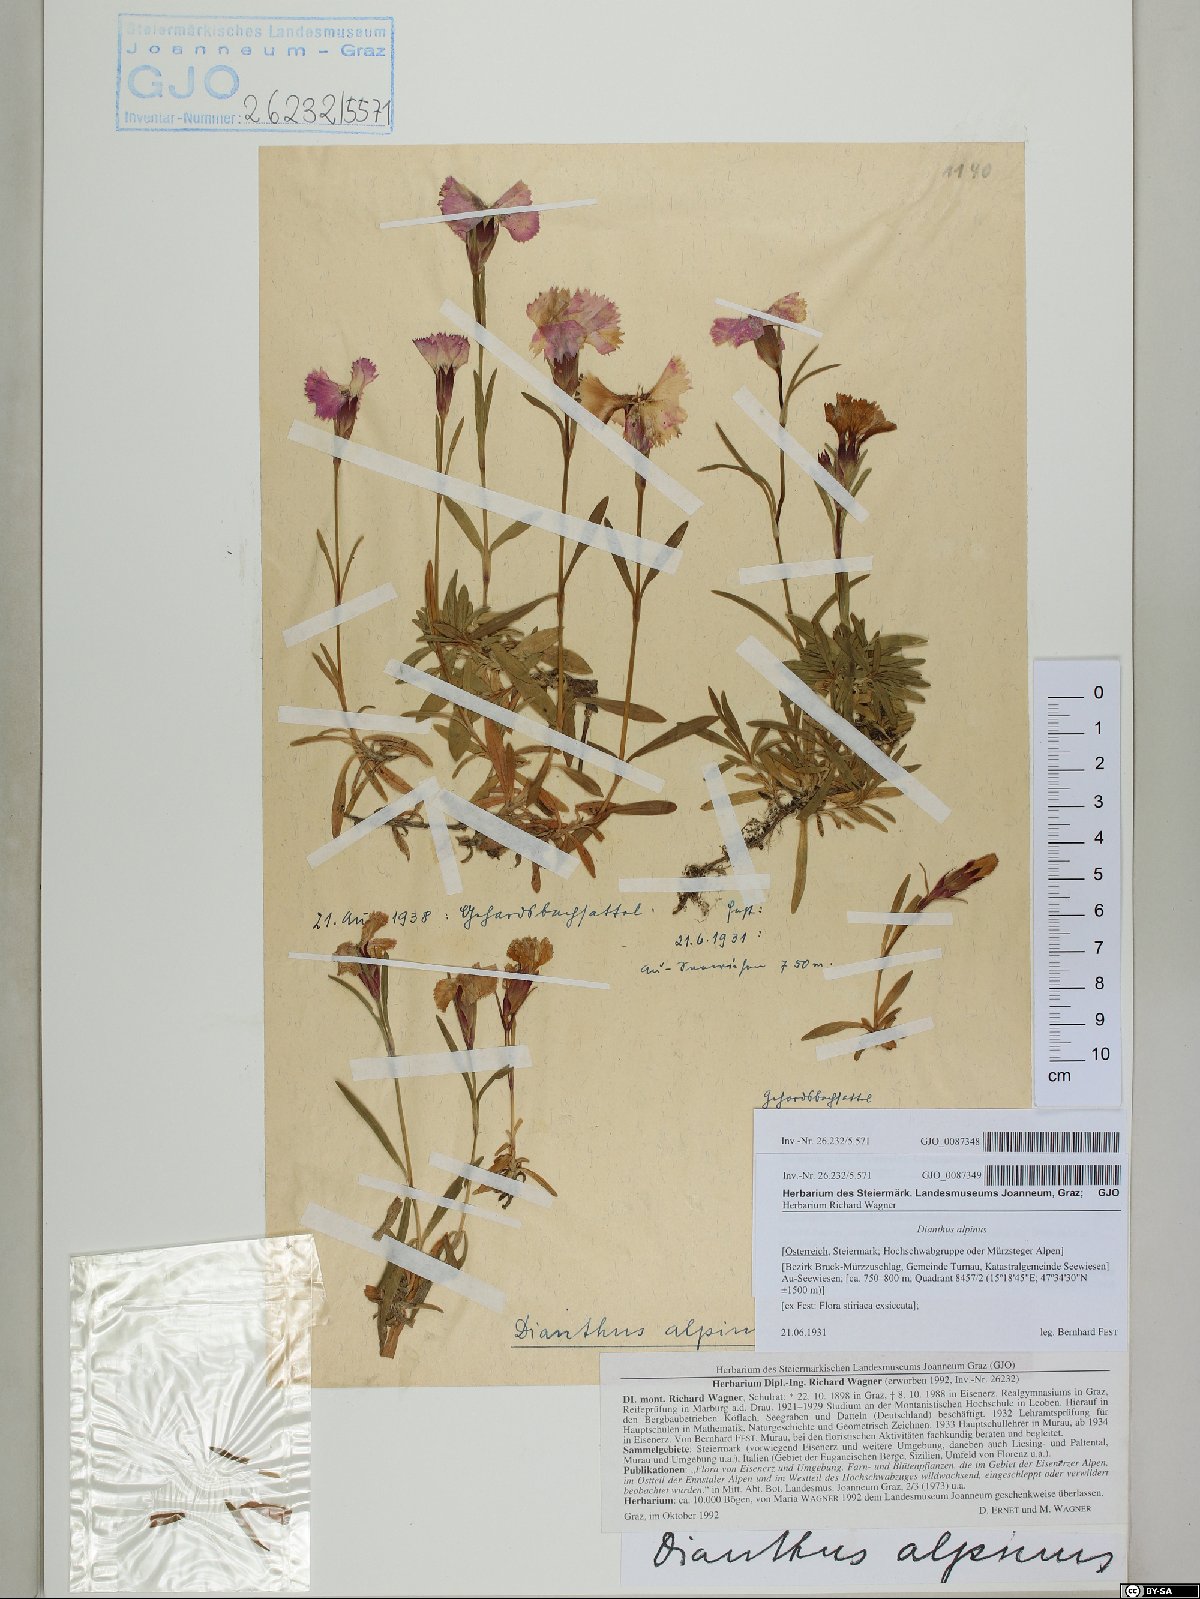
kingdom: Plantae
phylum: Tracheophyta
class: Magnoliopsida
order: Caryophyllales
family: Caryophyllaceae
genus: Dianthus
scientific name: Dianthus alpinus
